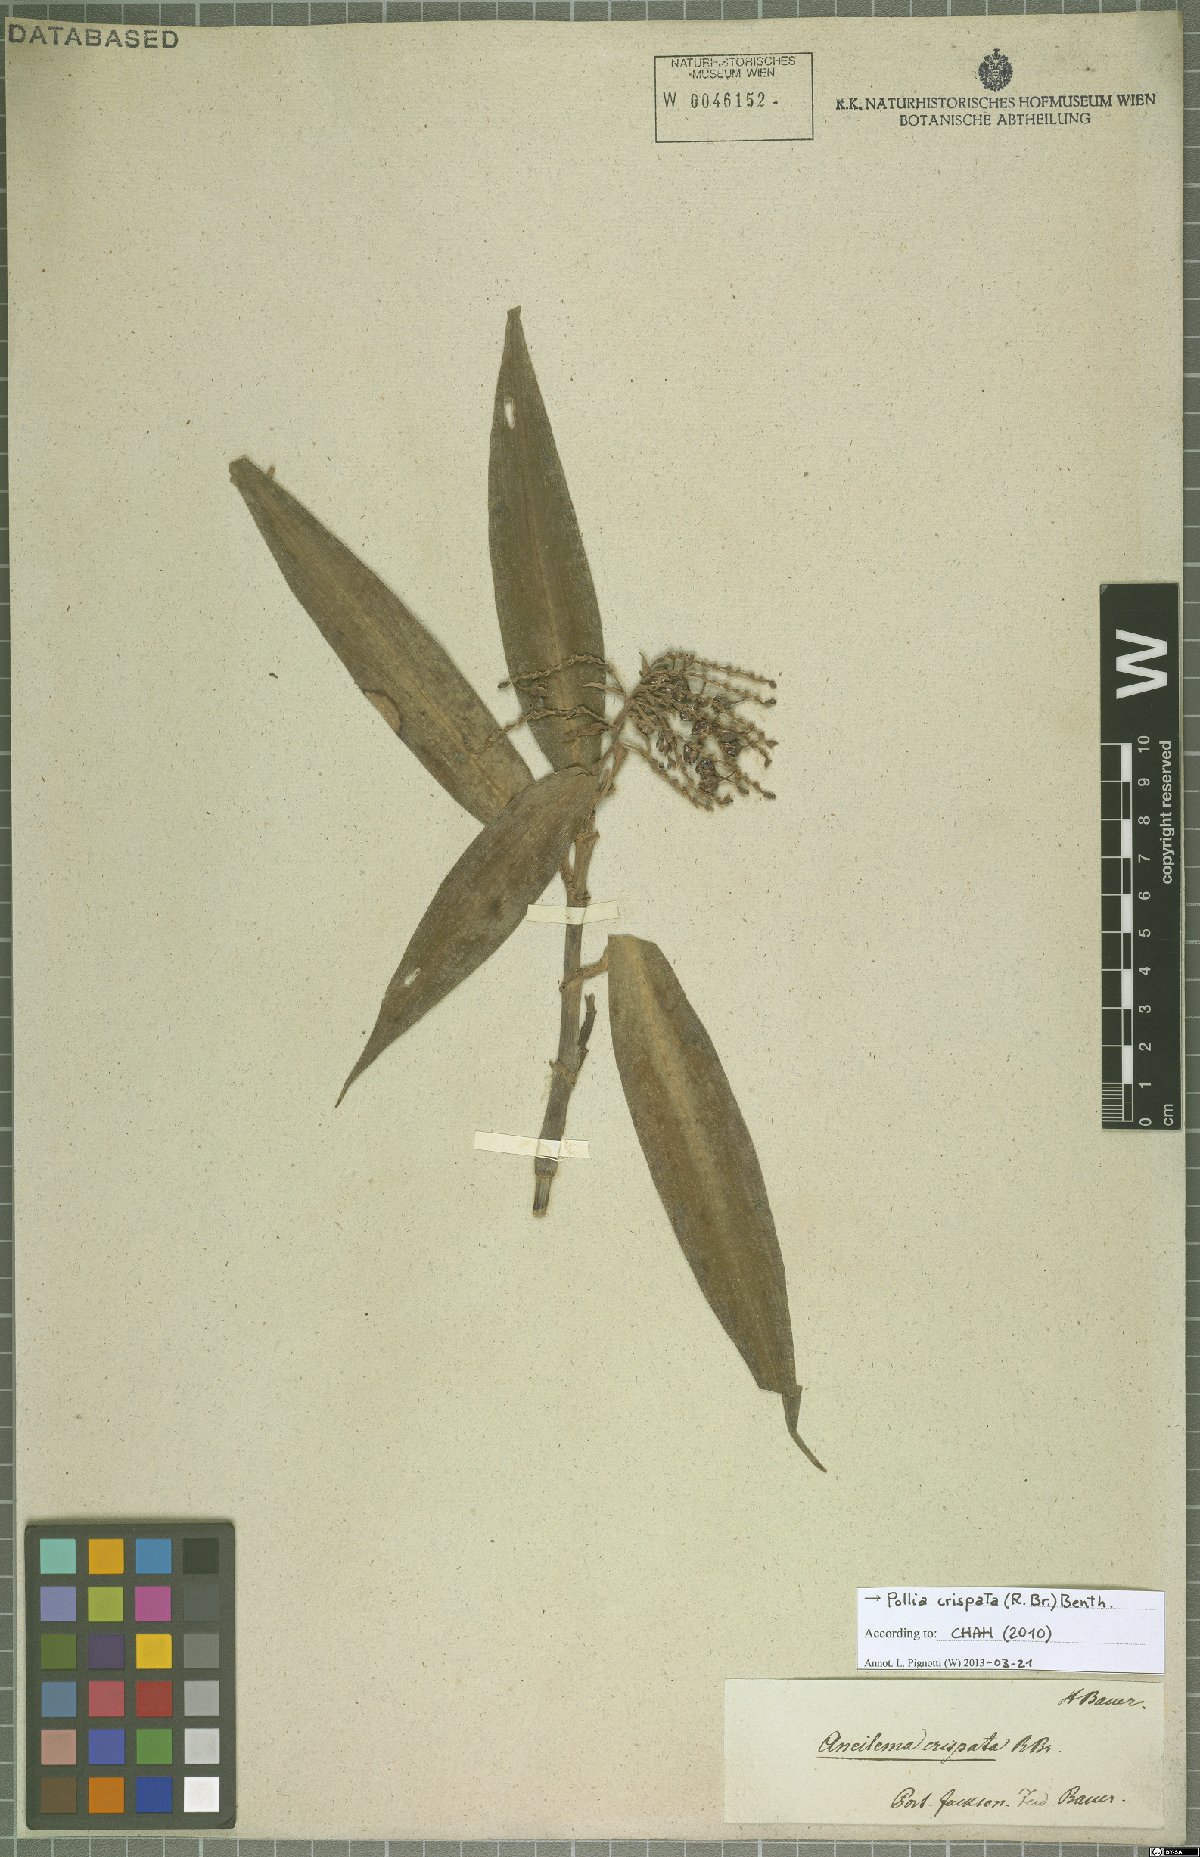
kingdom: Plantae
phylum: Tracheophyta
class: Liliopsida
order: Commelinales
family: Commelinaceae
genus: Pollia
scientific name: Pollia crispata
